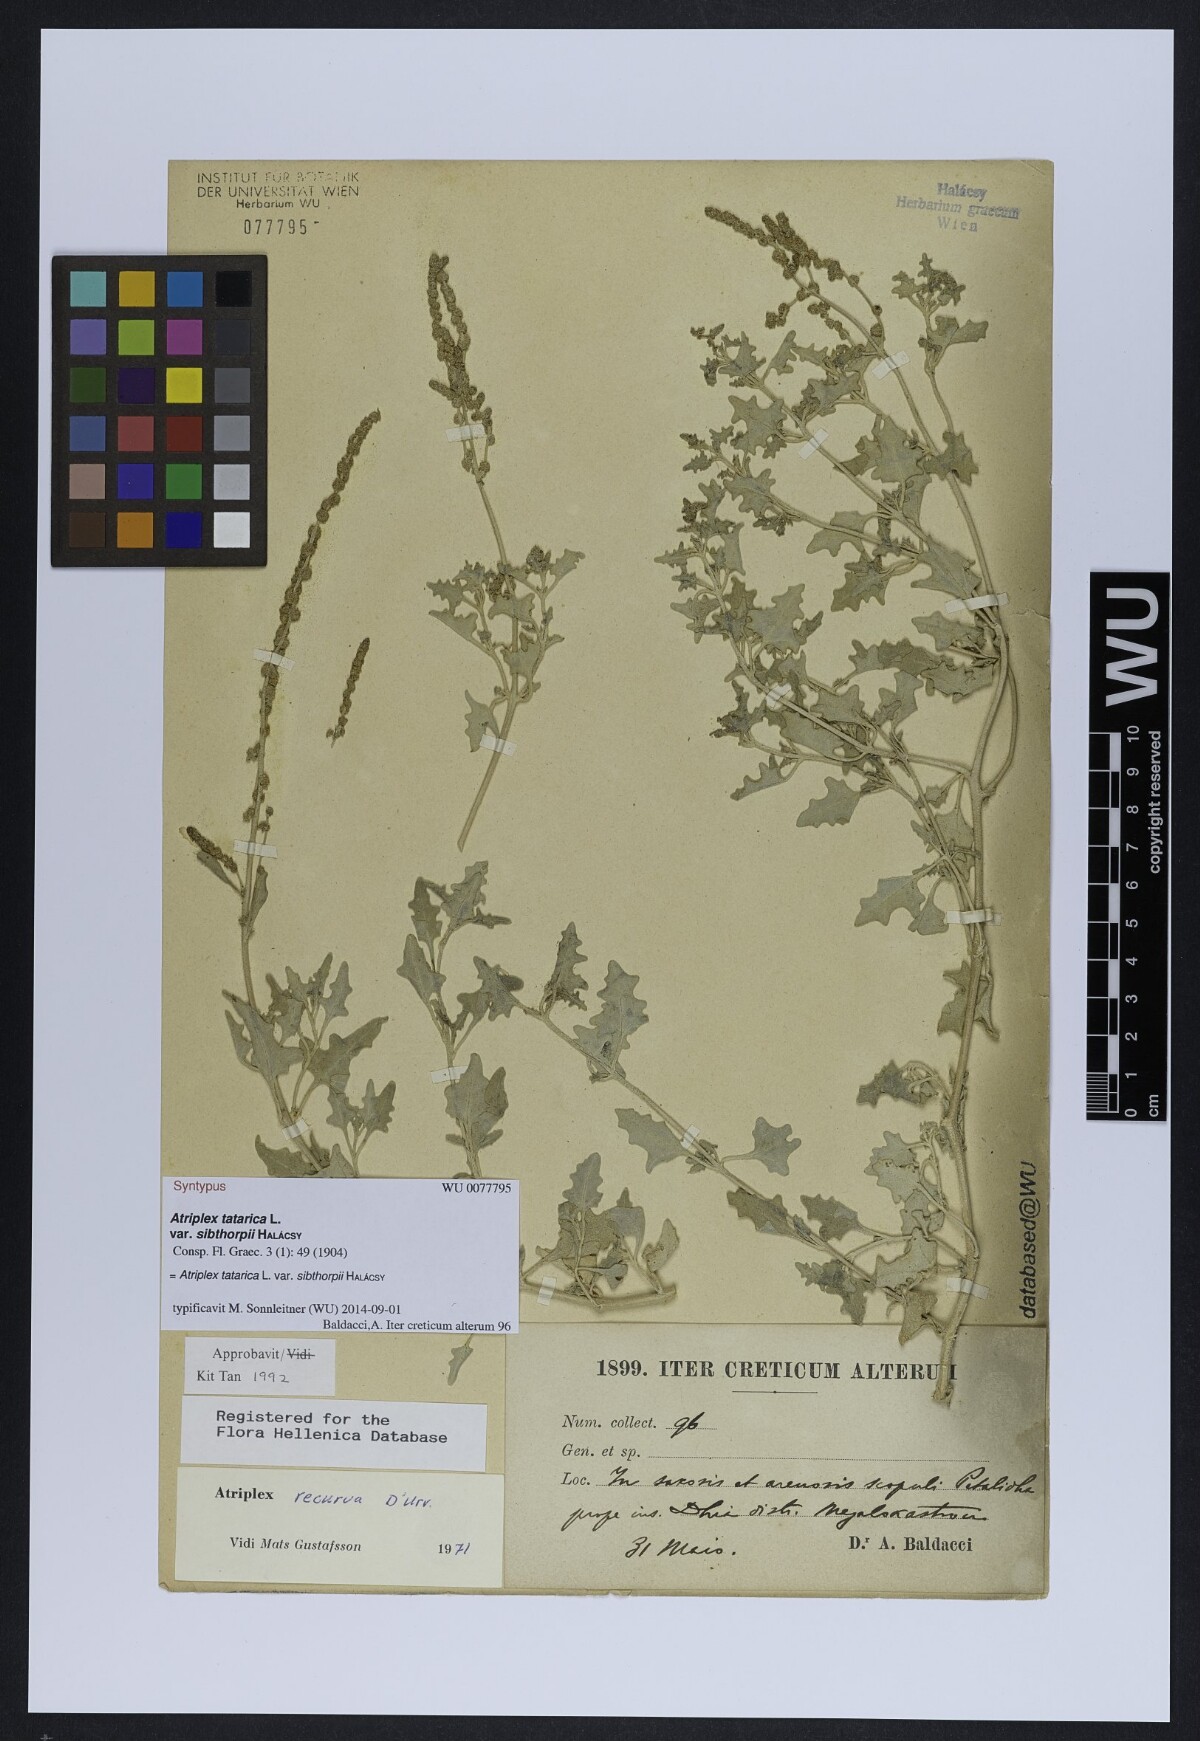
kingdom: Plantae
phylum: Tracheophyta
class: Magnoliopsida
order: Caryophyllales
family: Amaranthaceae
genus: Atriplex
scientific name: Atriplex recurva
